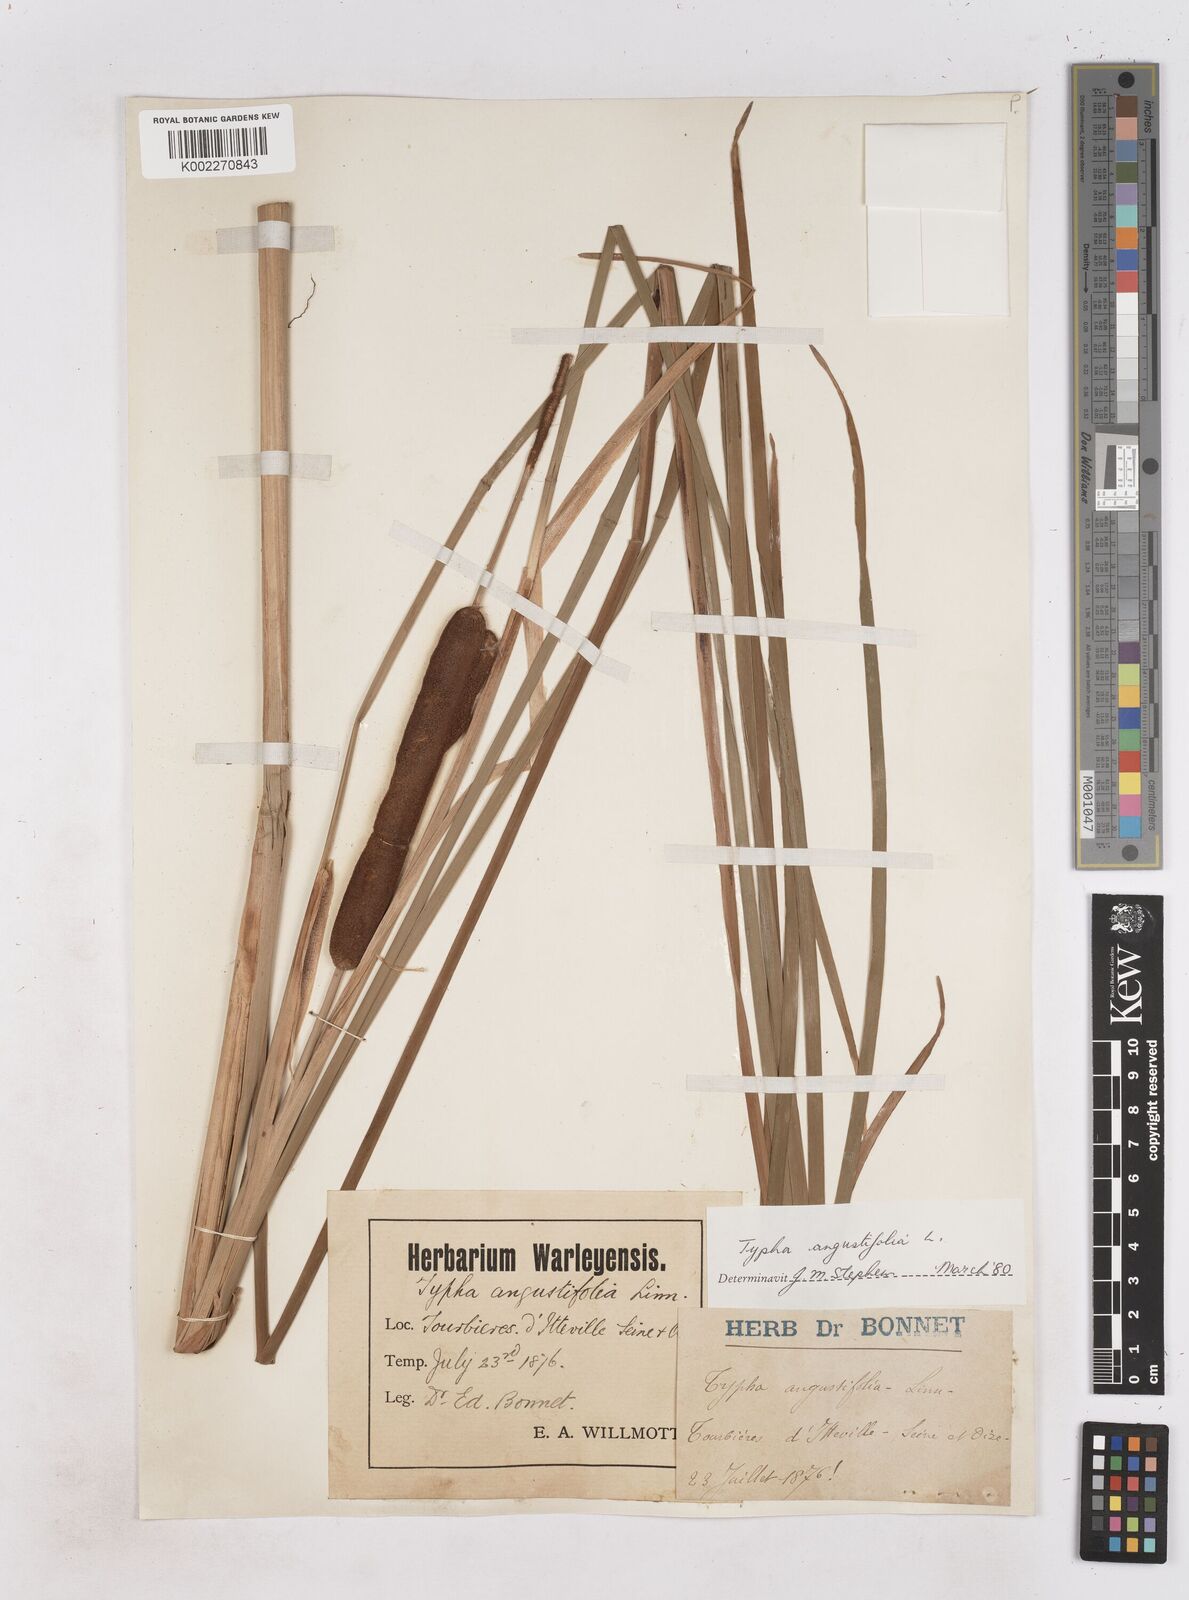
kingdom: Plantae
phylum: Tracheophyta
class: Liliopsida
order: Poales
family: Typhaceae
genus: Typha
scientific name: Typha angustifolia
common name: Lesser bulrush
